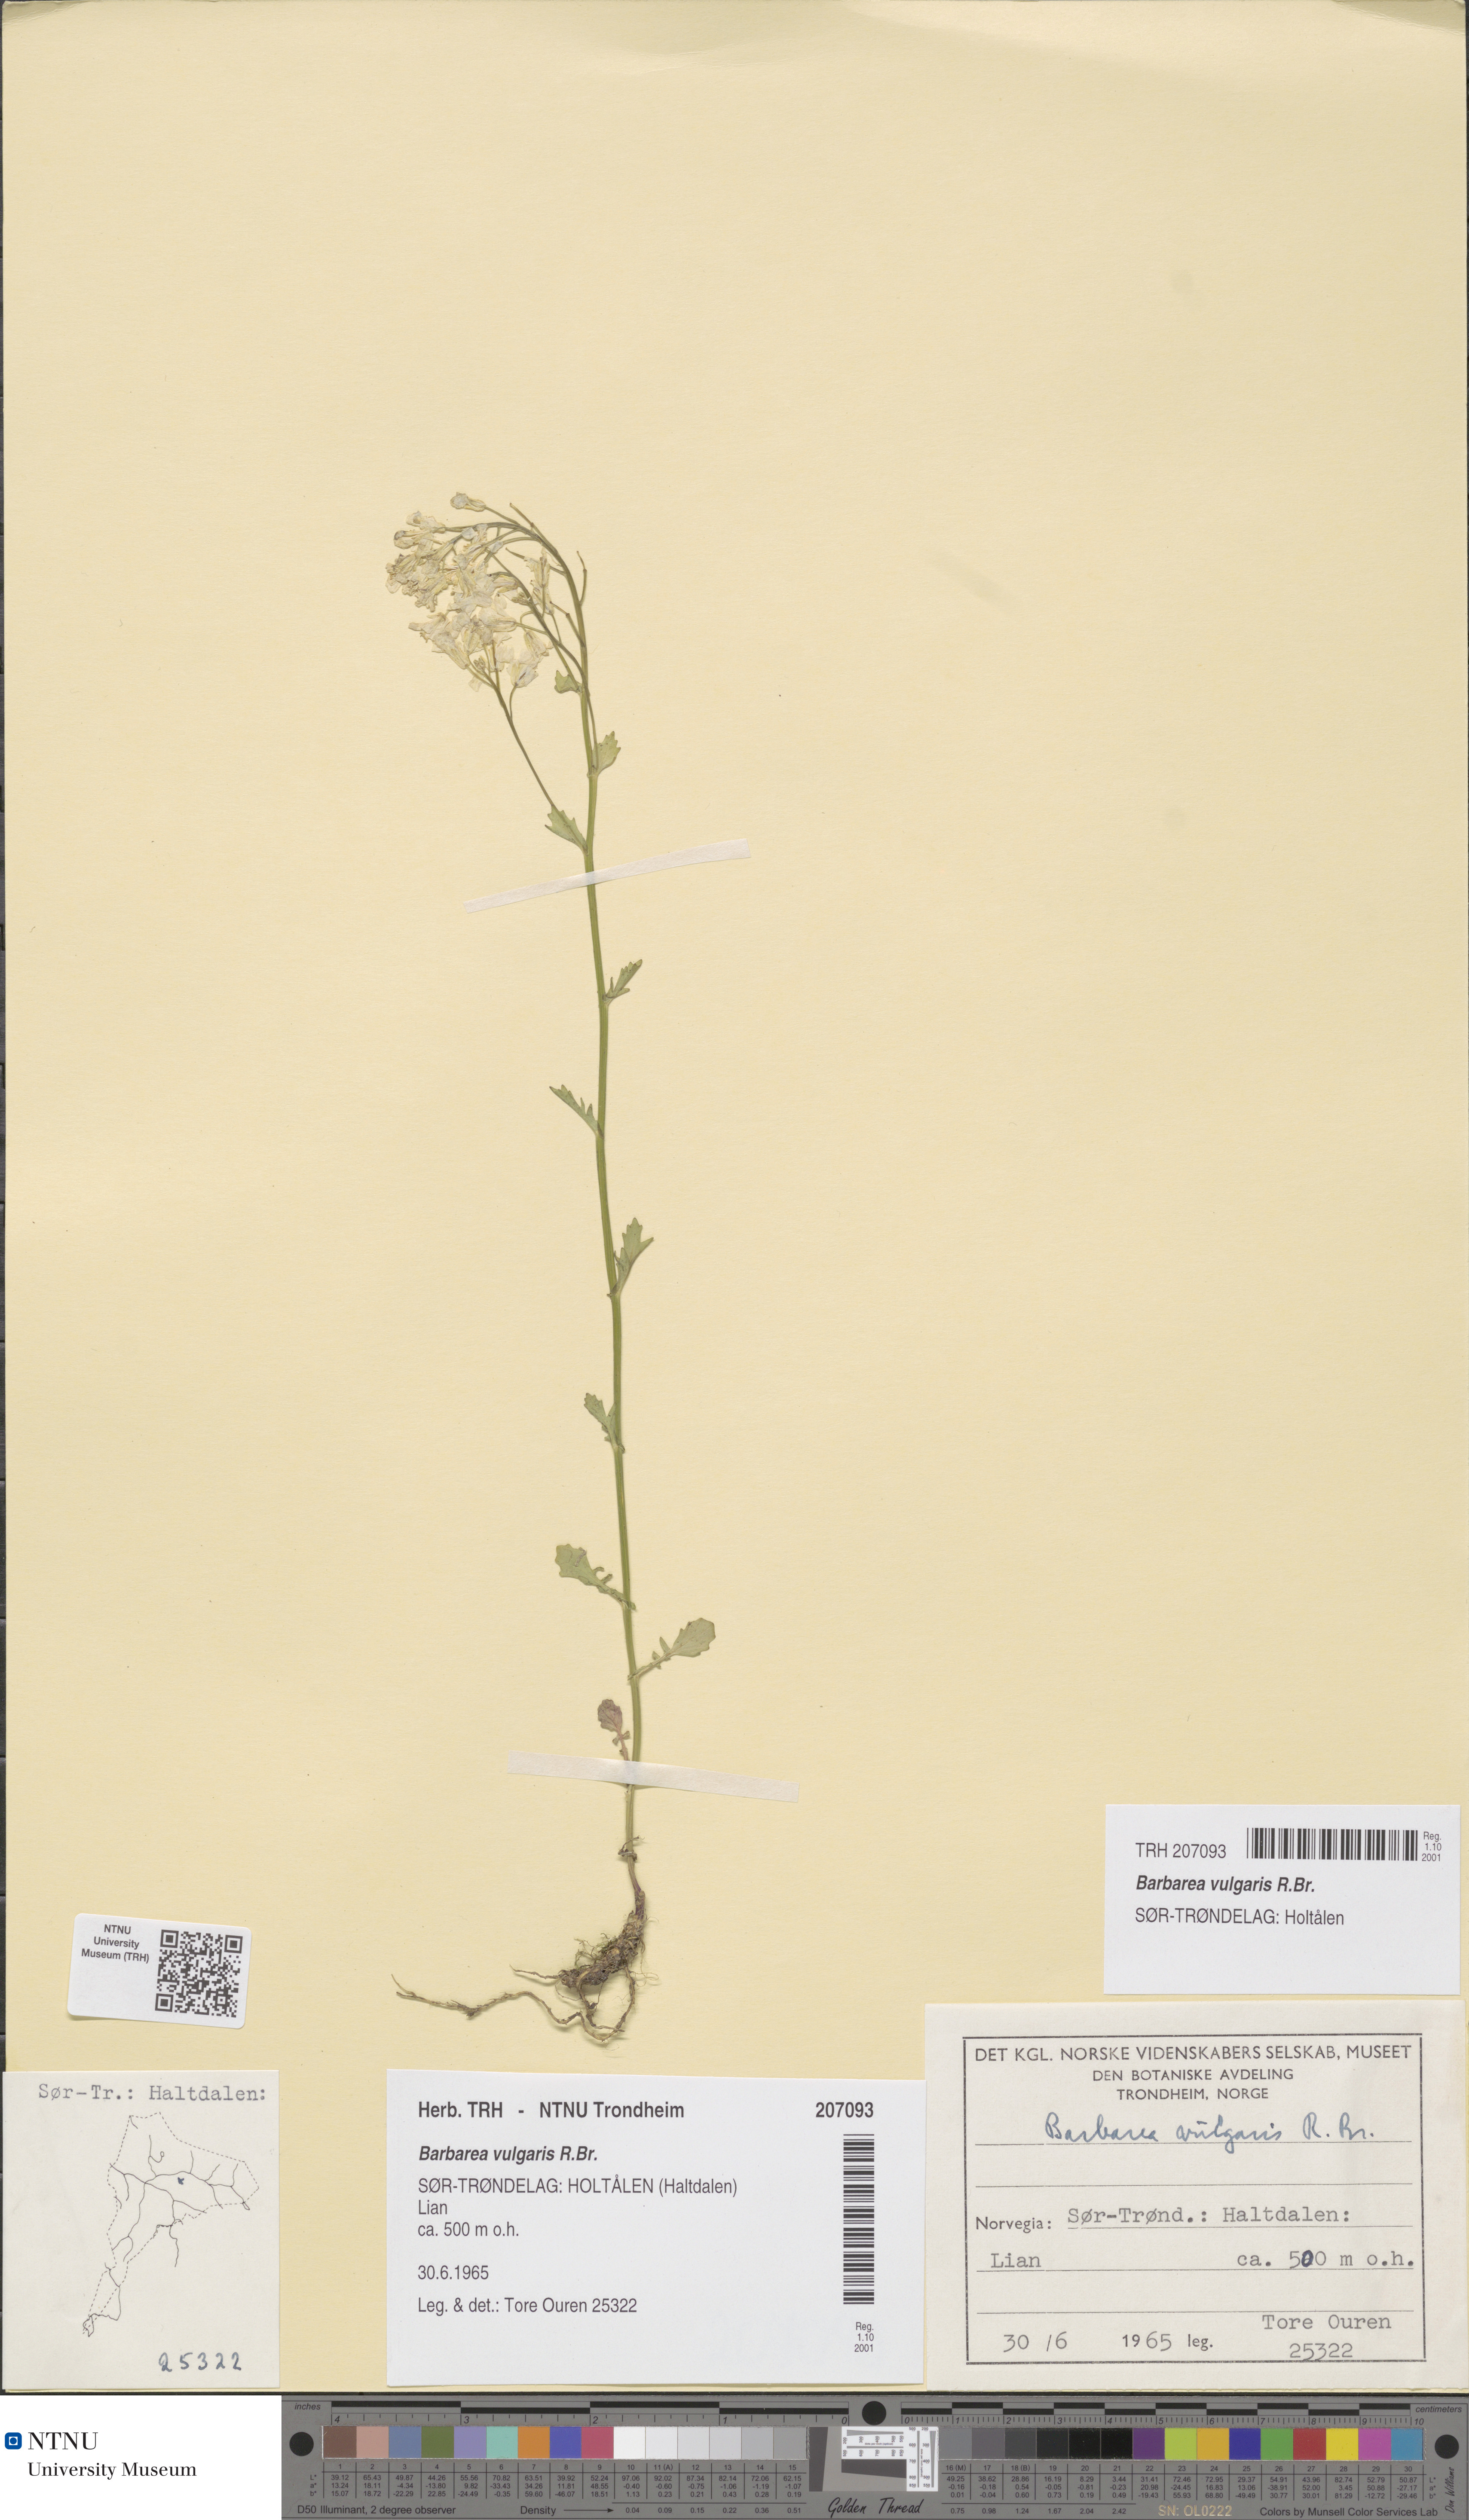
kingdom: Plantae
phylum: Tracheophyta
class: Magnoliopsida
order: Brassicales
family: Brassicaceae
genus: Barbarea
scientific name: Barbarea vulgaris
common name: Cressy-greens
